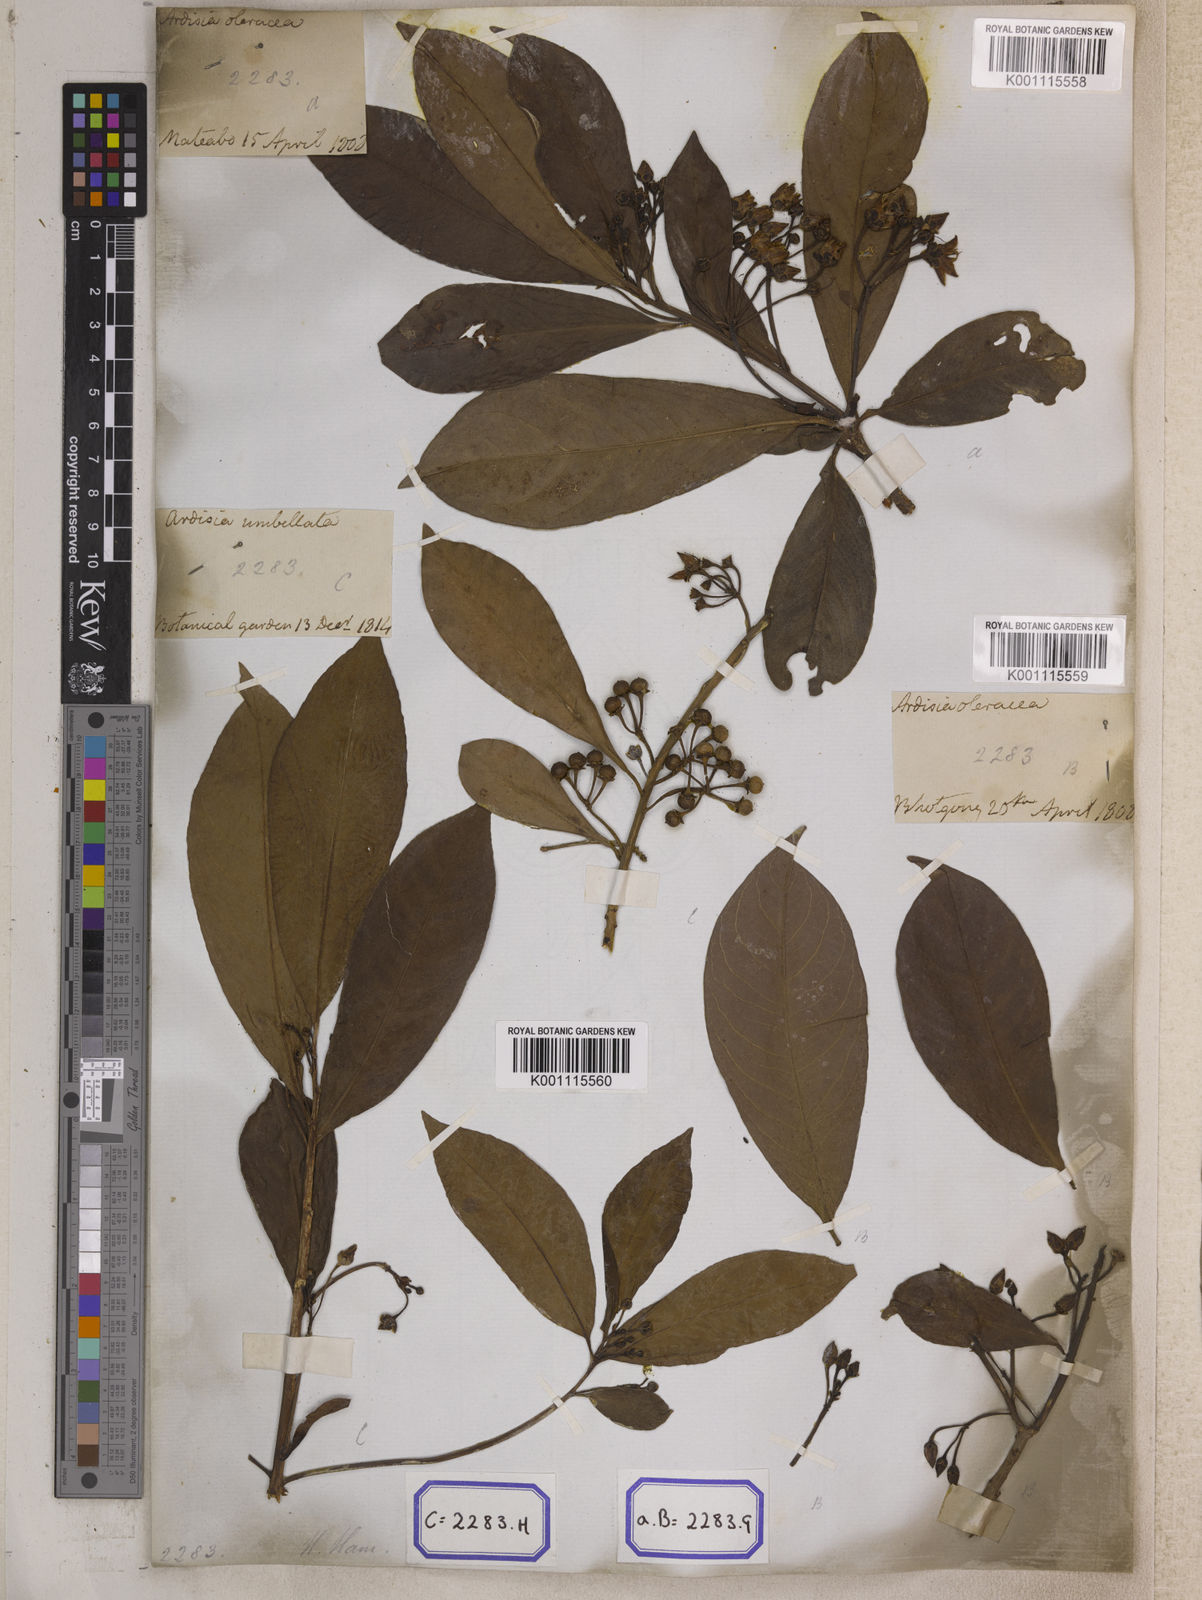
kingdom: Plantae
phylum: Tracheophyta
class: Magnoliopsida
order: Ericales
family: Primulaceae
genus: Ardisia
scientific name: Ardisia humilis
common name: Low shoebutton
